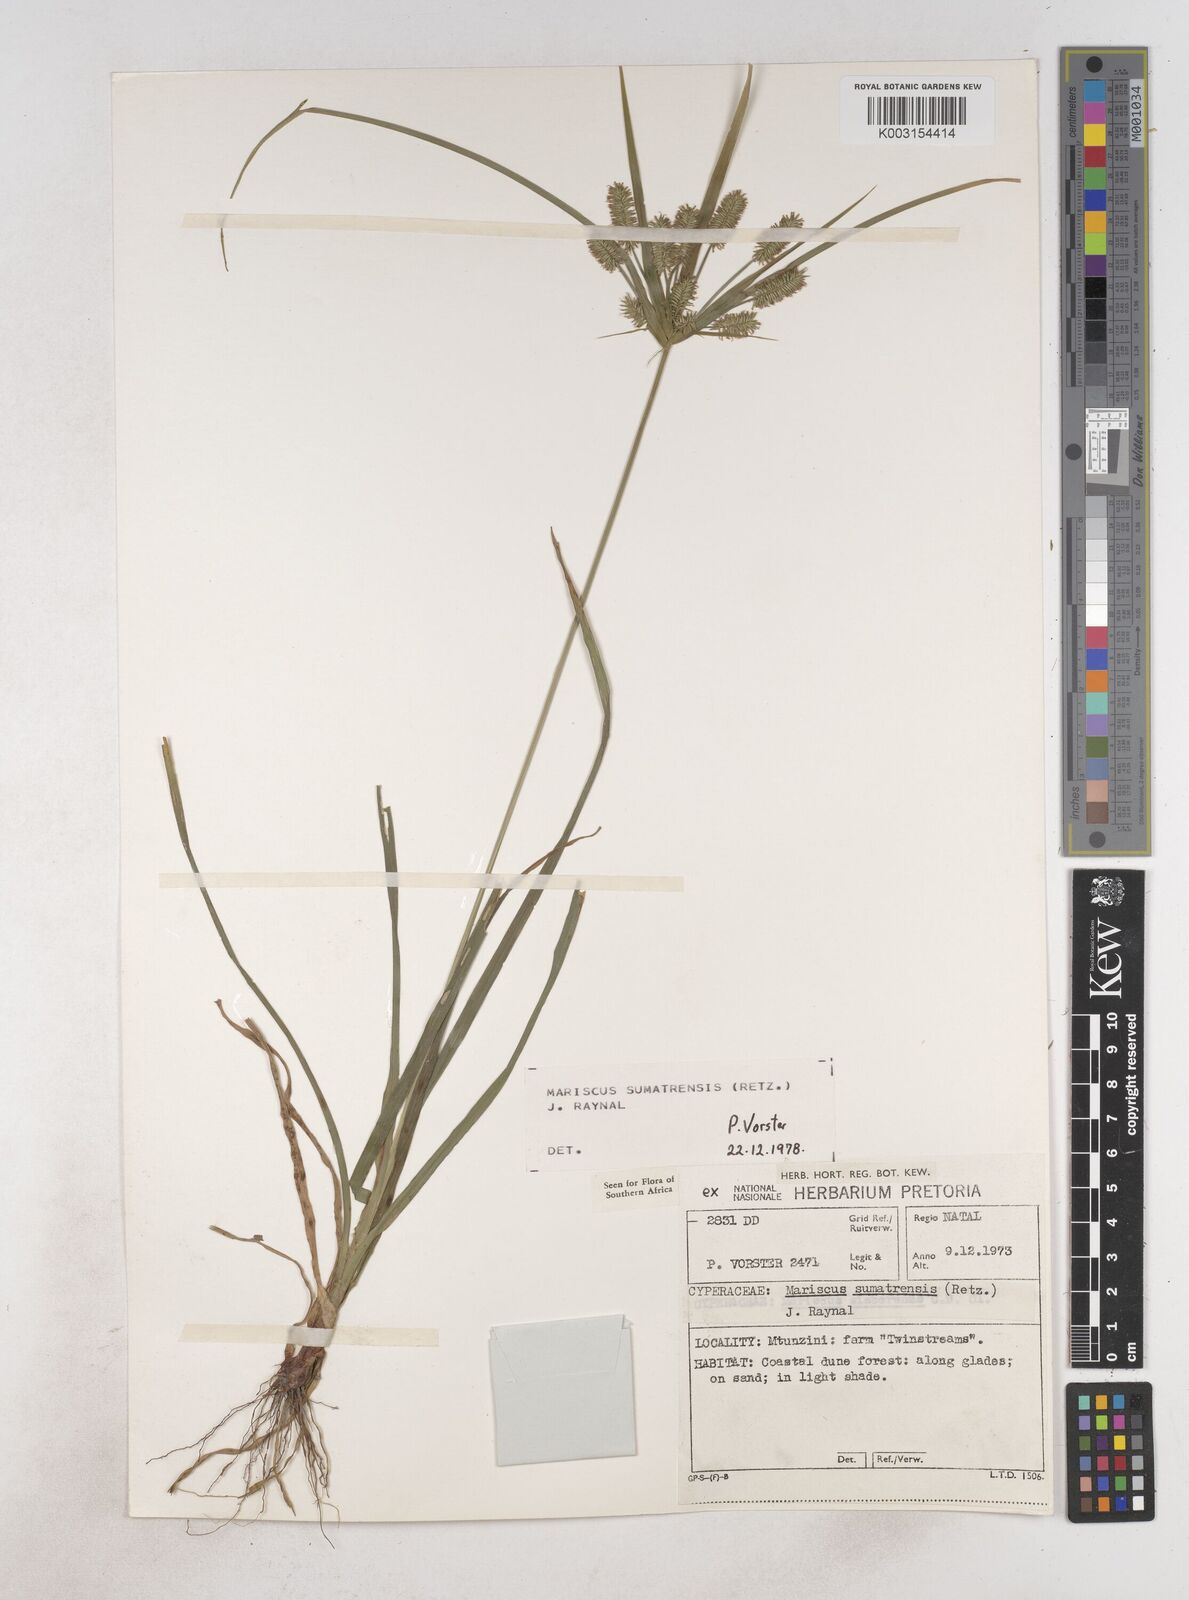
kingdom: Plantae
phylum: Tracheophyta
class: Liliopsida
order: Poales
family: Cyperaceae
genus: Cyperus
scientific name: Cyperus cyperoides
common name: Pacific island flat sedge
